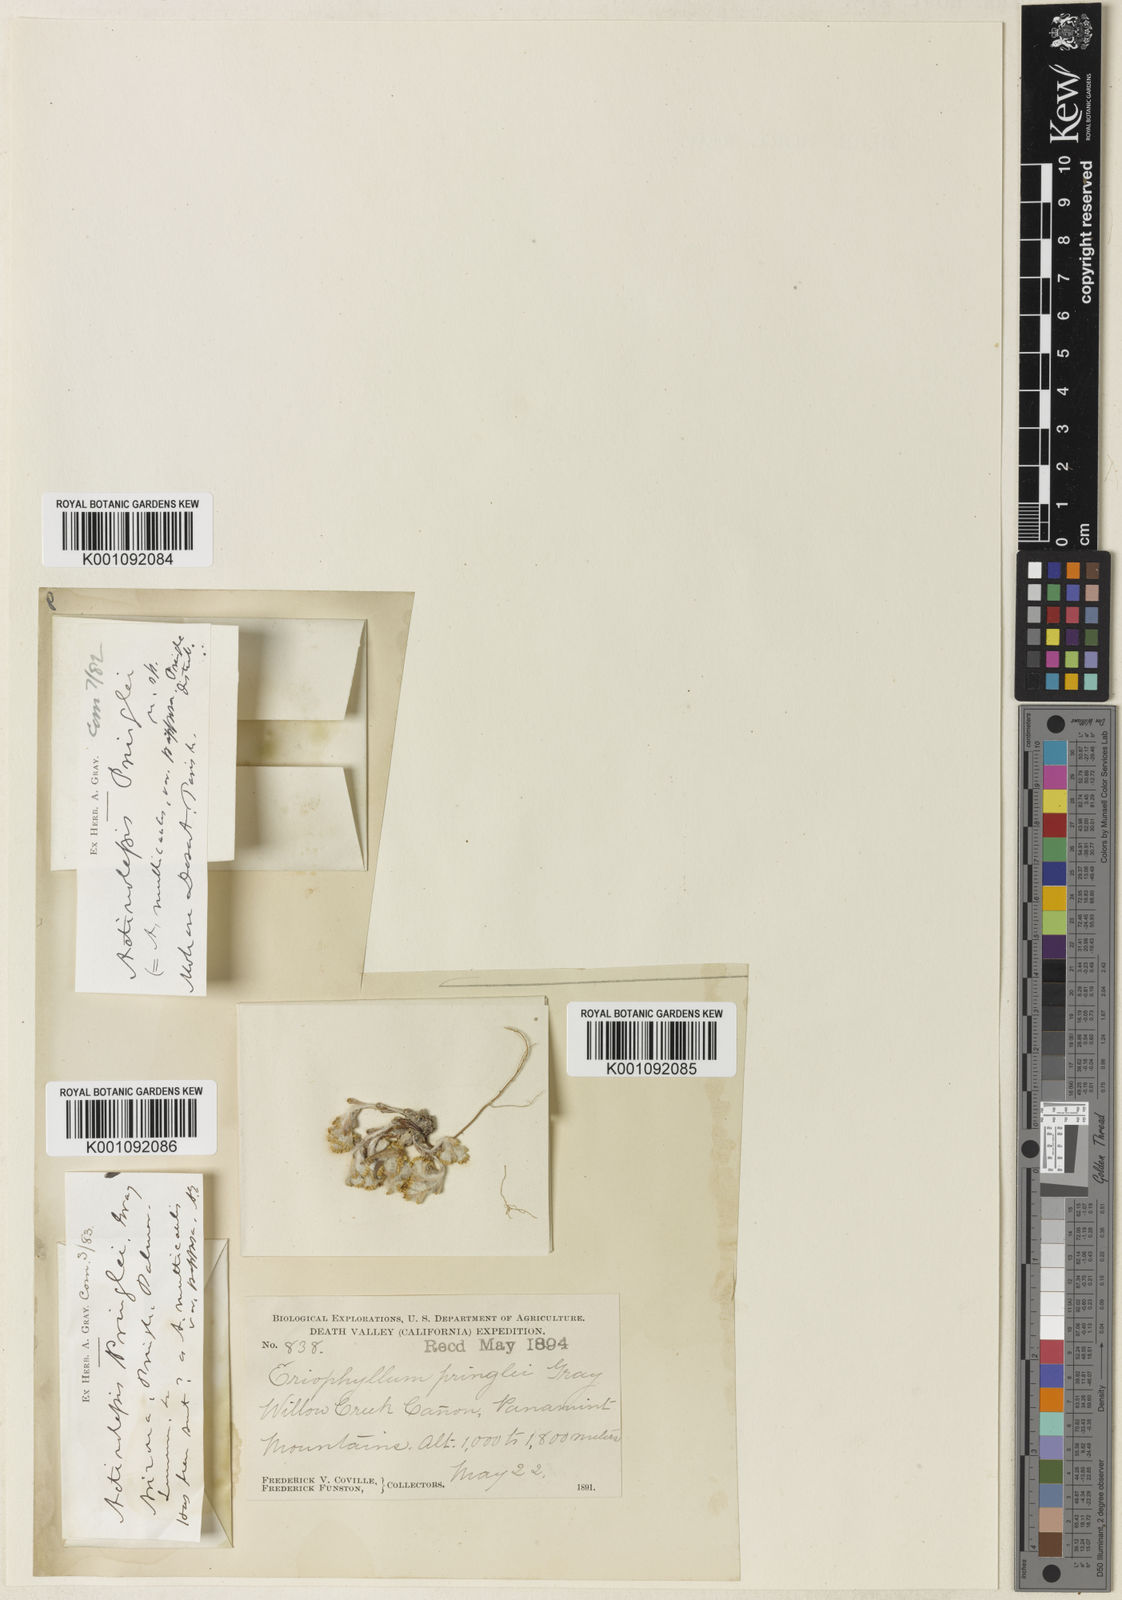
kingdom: Plantae
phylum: Tracheophyta
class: Magnoliopsida
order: Asterales
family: Asteraceae
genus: Eriophyllum
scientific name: Eriophyllum pringlei
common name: Pringle's woolly-sunflower
